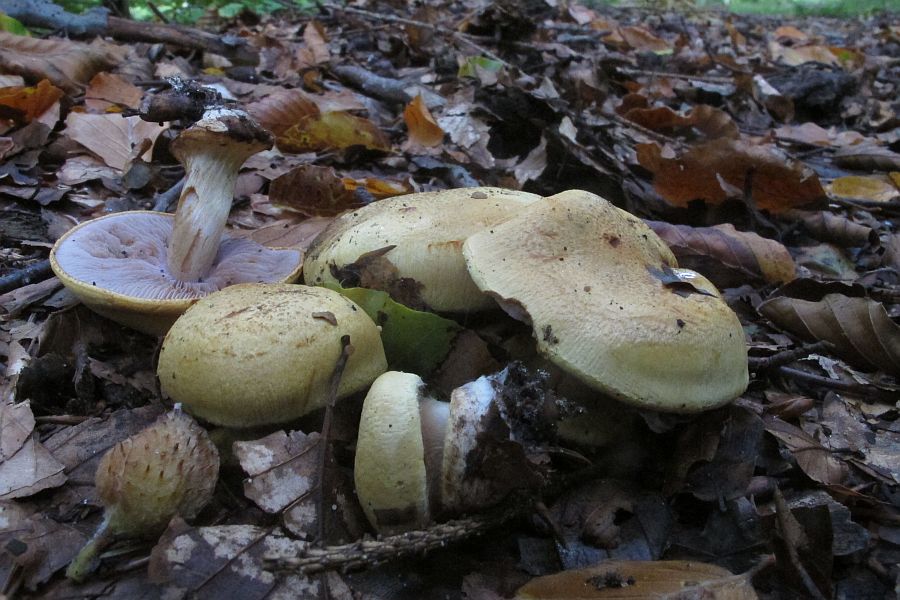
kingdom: Fungi
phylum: Basidiomycota
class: Agaricomycetes
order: Agaricales
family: Cortinariaceae
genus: Calonarius
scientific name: Calonarius callochrous
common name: lillabladet slørhat
